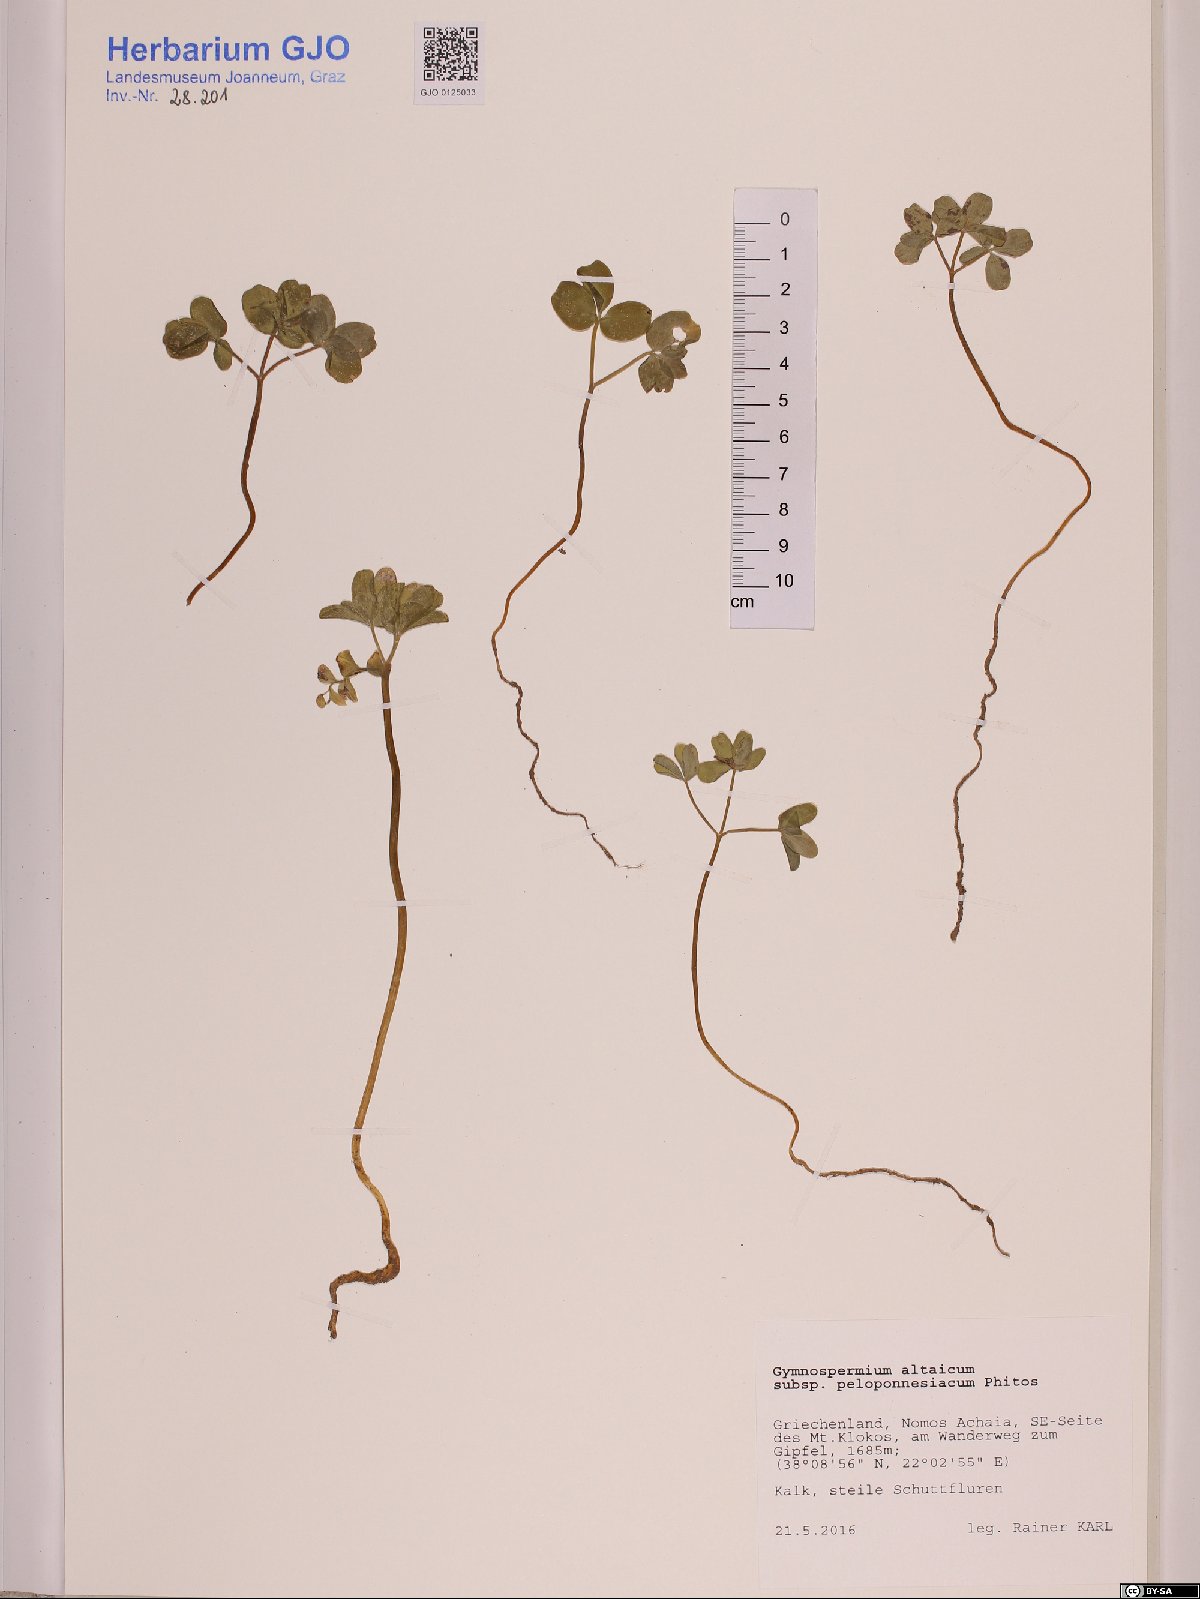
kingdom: Plantae
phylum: Tracheophyta
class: Magnoliopsida
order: Ranunculales
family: Berberidaceae
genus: Gymnospermium
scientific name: Gymnospermium peloponnesiacum
